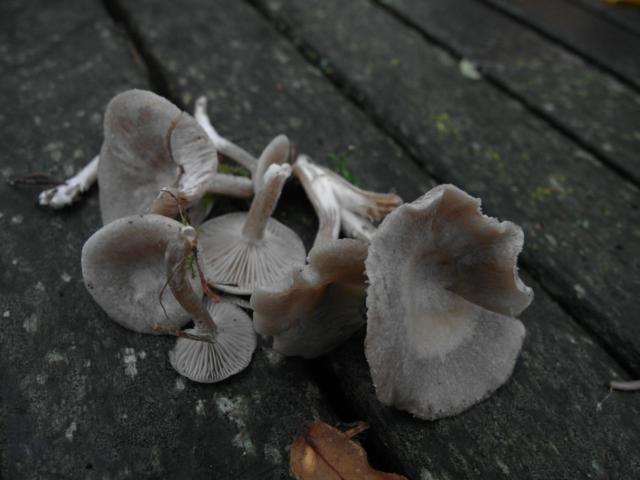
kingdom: Fungi
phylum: Basidiomycota
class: Agaricomycetes
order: Agaricales
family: Tricholomataceae
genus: Clitocybe
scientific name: Clitocybe metachroa
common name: grå tragthat
